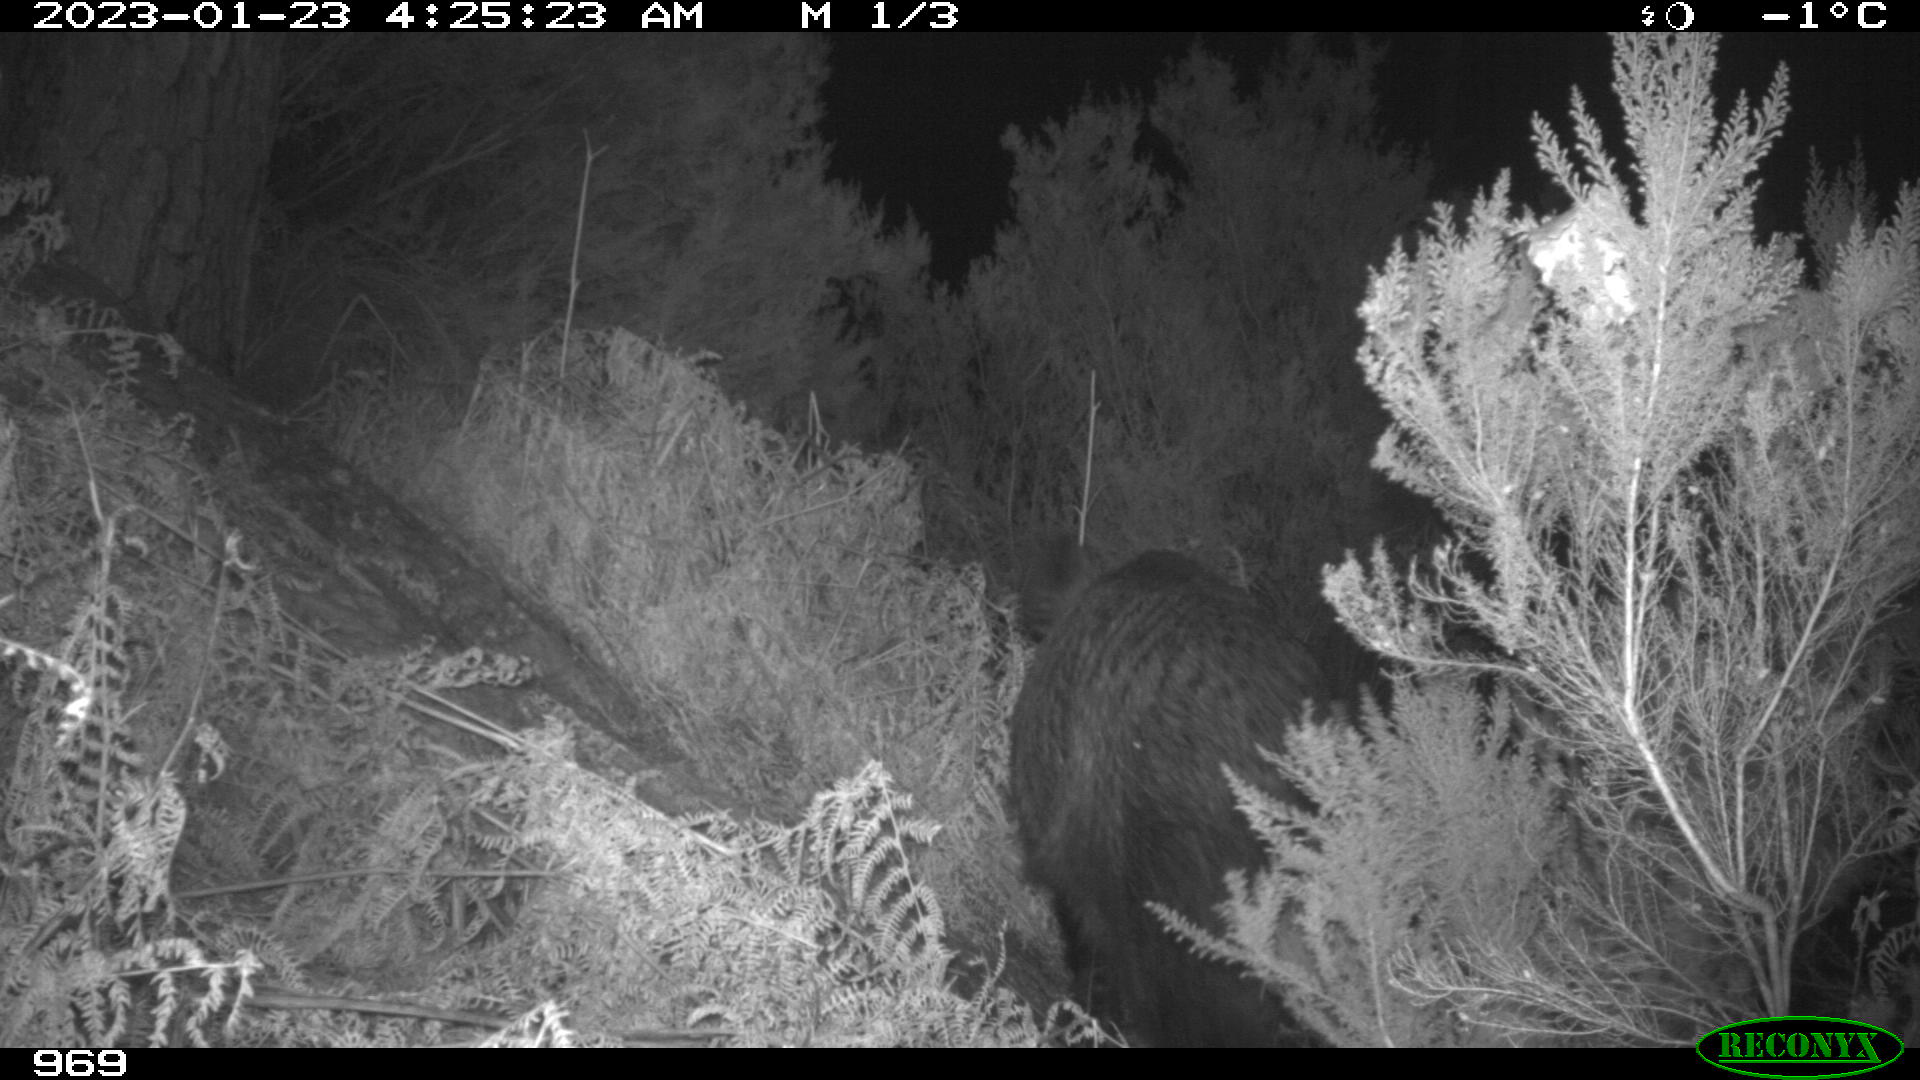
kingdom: Animalia
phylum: Chordata
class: Mammalia
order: Artiodactyla
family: Suidae
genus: Sus
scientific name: Sus scrofa
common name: Wild boar
